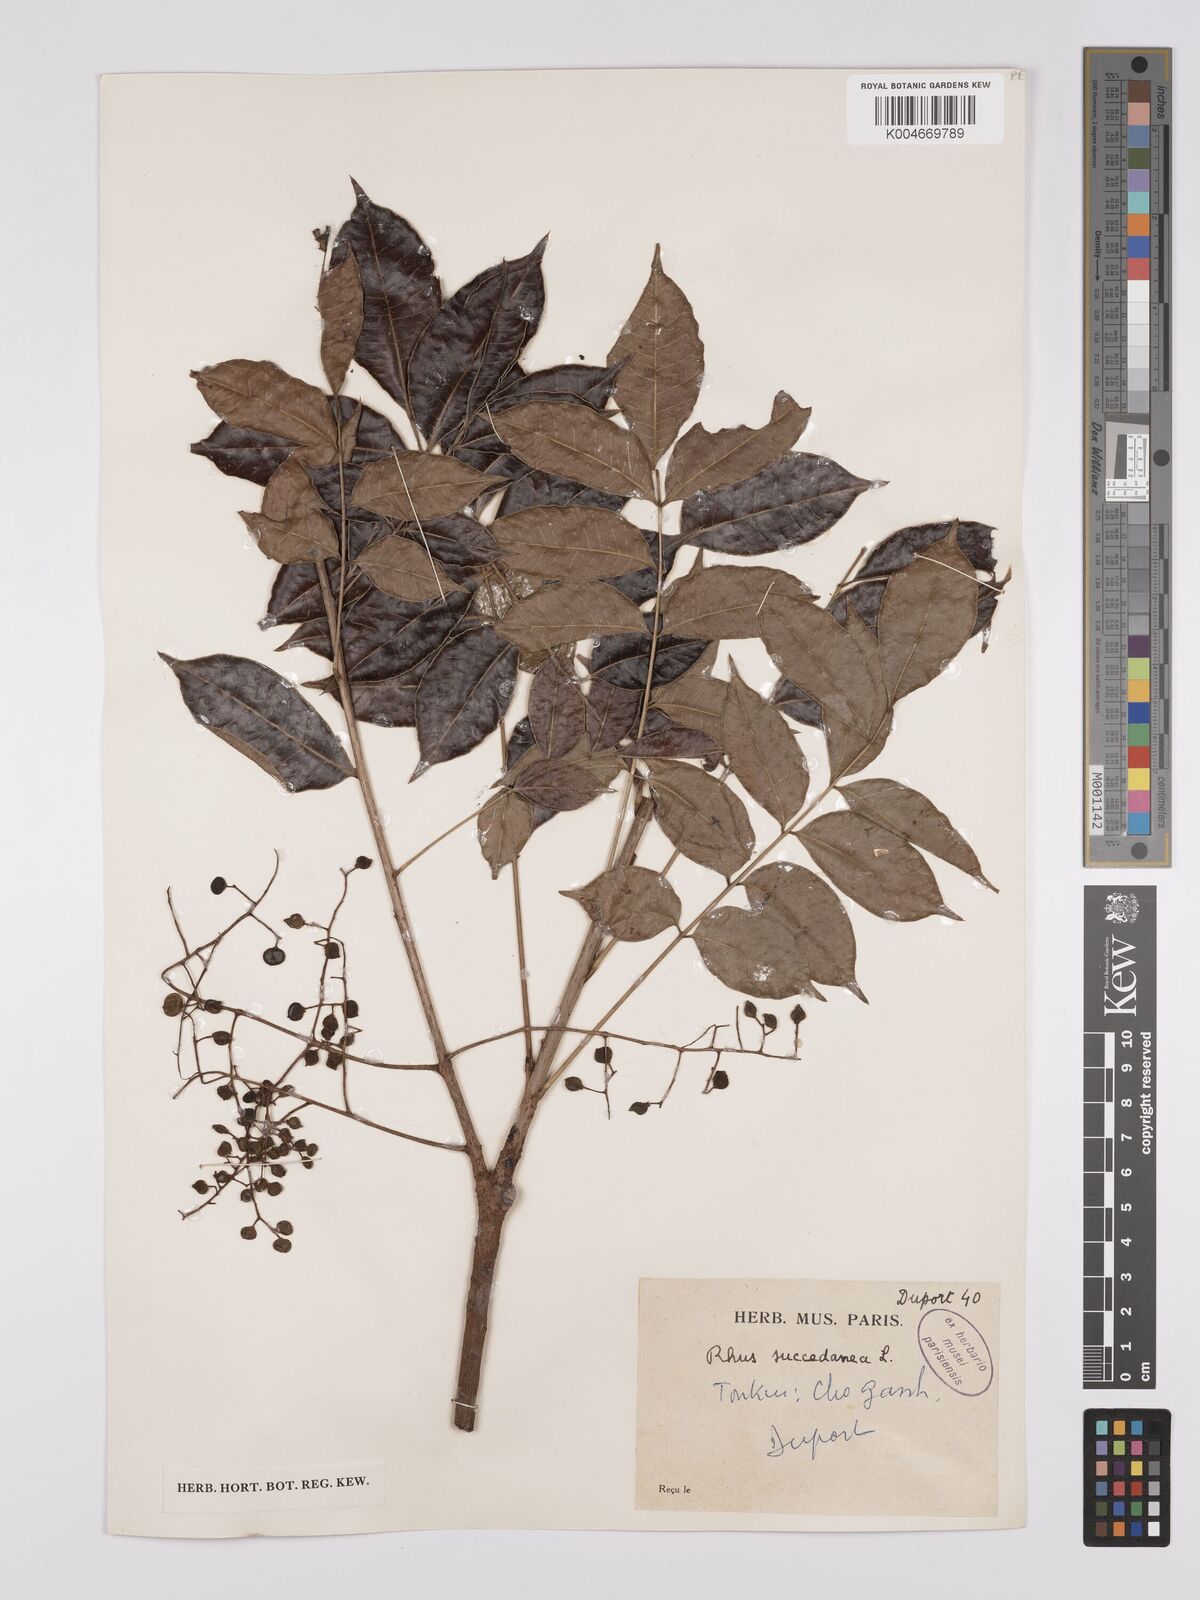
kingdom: Plantae
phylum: Tracheophyta
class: Magnoliopsida
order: Sapindales
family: Anacardiaceae
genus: Toxicodendron
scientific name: Toxicodendron succedaneum
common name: Wax tree
